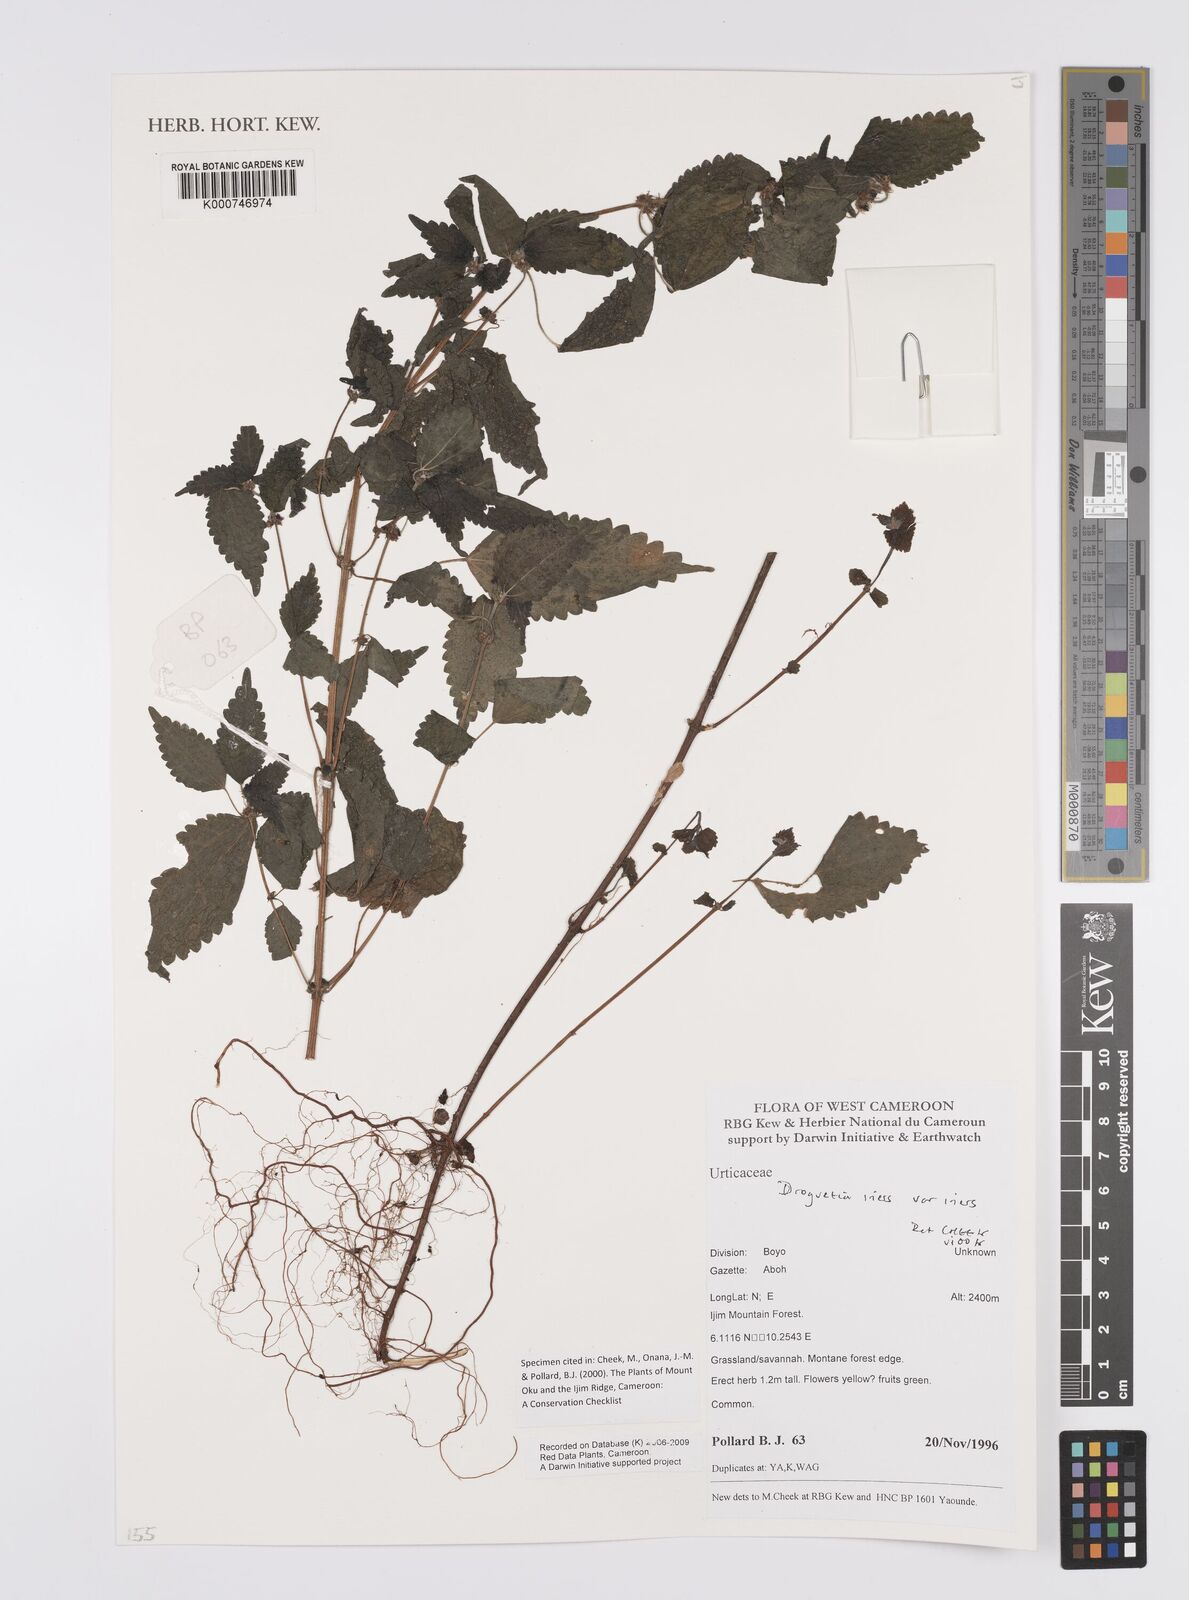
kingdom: Plantae
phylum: Tracheophyta
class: Magnoliopsida
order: Rosales
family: Urticaceae
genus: Droguetia
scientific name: Droguetia iners
